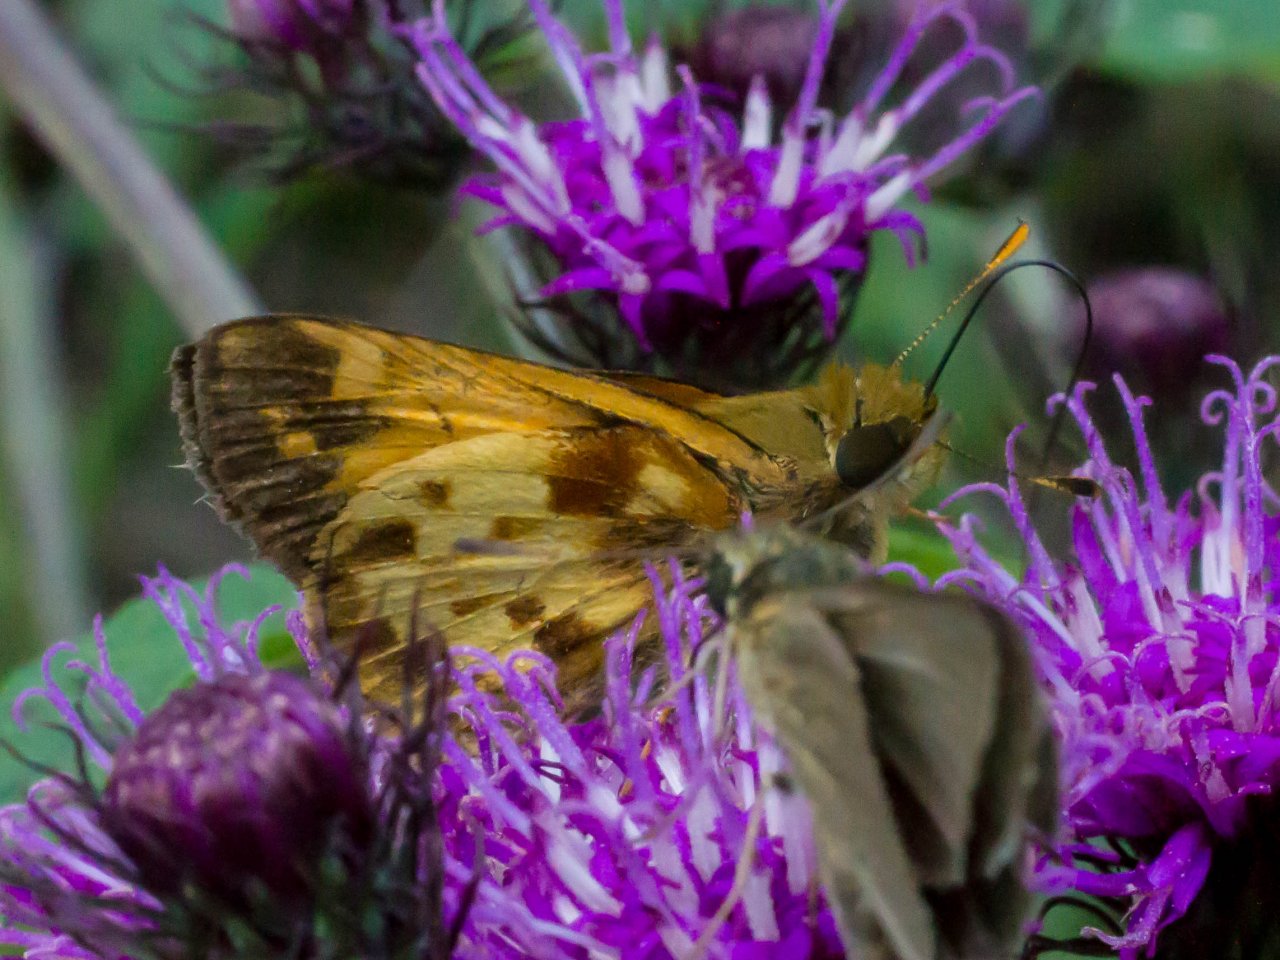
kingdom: Animalia
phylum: Arthropoda
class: Insecta
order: Lepidoptera
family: Hesperiidae
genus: Lon
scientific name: Lon zabulon
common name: Zabulon Skipper
